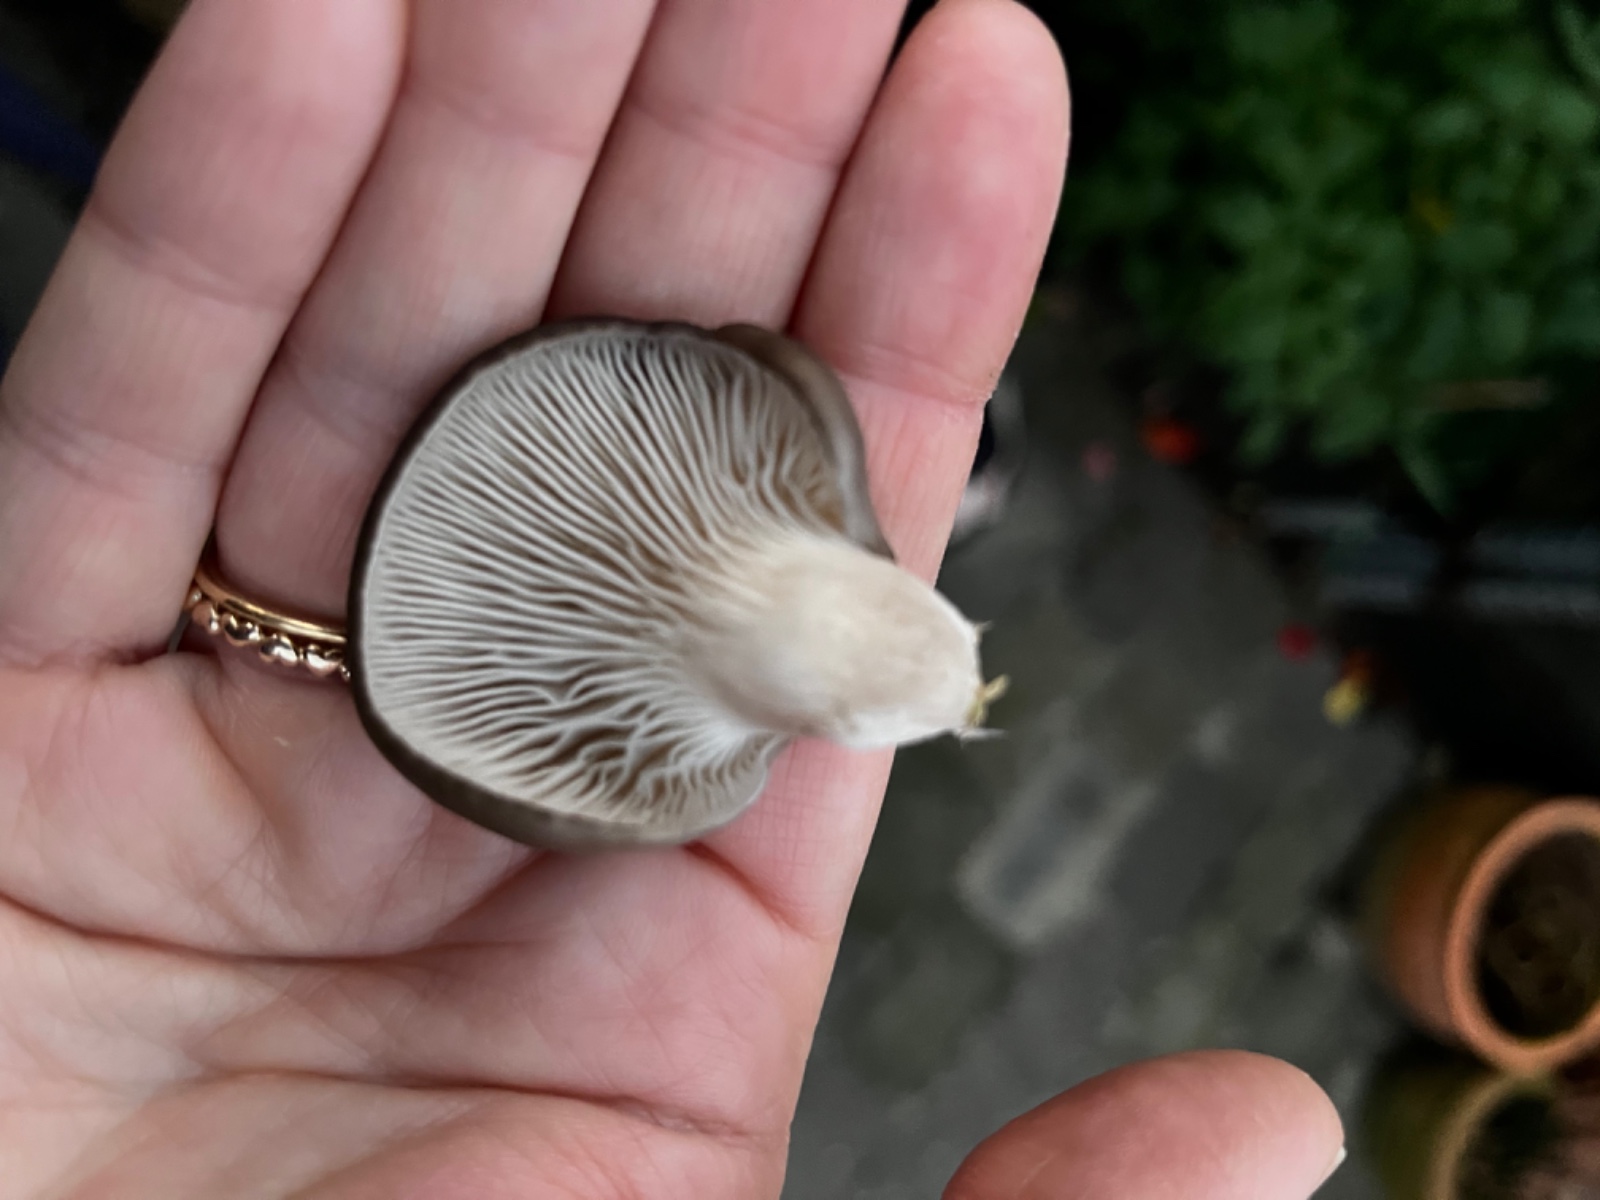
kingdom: Fungi
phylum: Basidiomycota
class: Agaricomycetes
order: Agaricales
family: Pleurotaceae
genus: Pleurotus
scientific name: Pleurotus ostreatus
